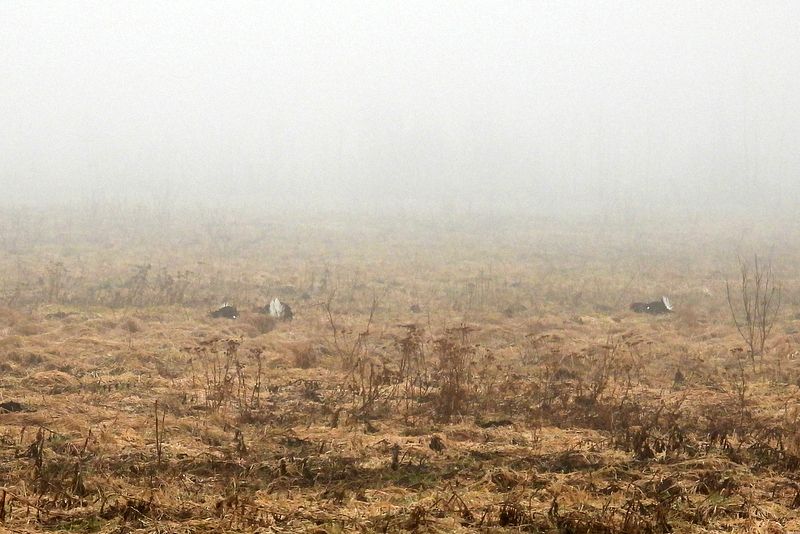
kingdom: Animalia
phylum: Chordata
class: Aves
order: Galliformes
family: Phasianidae
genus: Lyrurus
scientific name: Lyrurus tetrix
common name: Black grouse
